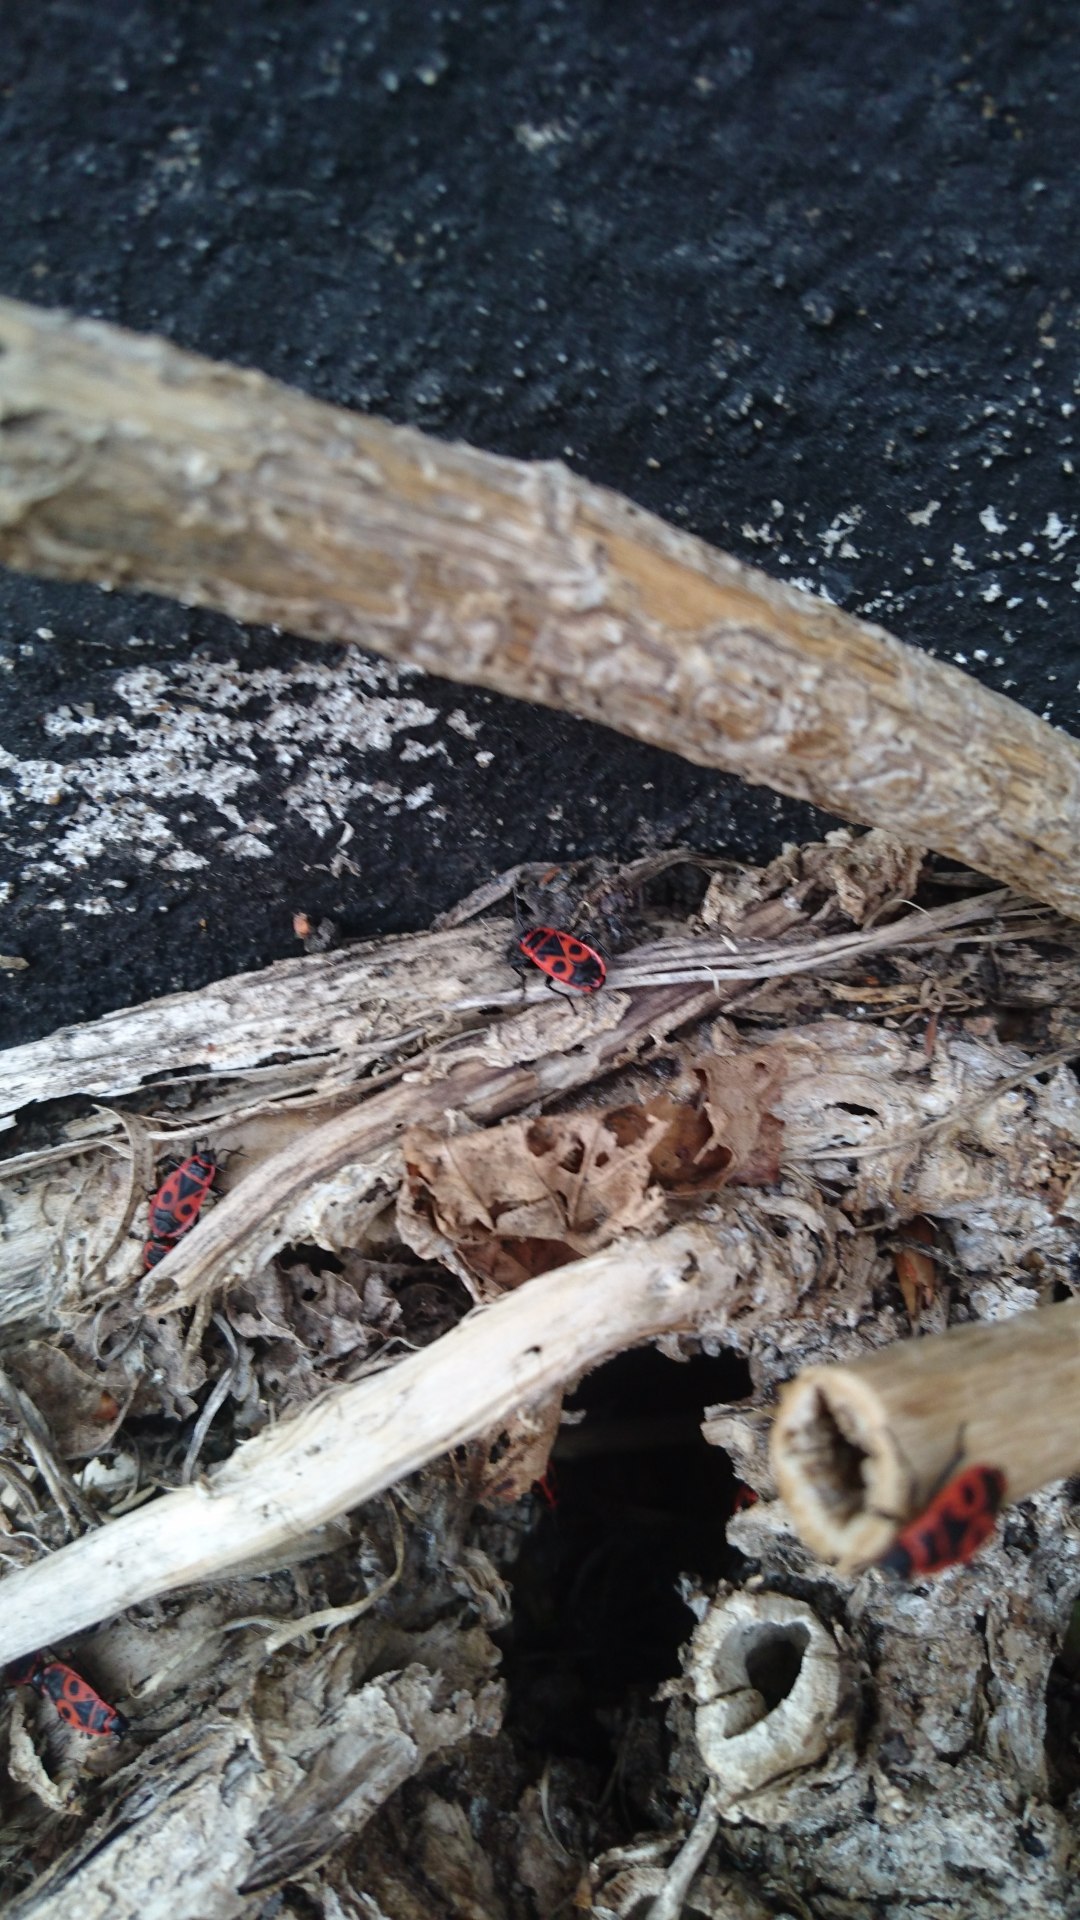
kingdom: Animalia
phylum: Arthropoda
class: Insecta
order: Hemiptera
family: Pyrrhocoridae
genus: Pyrrhocoris
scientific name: Pyrrhocoris apterus
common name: Ildtæge
